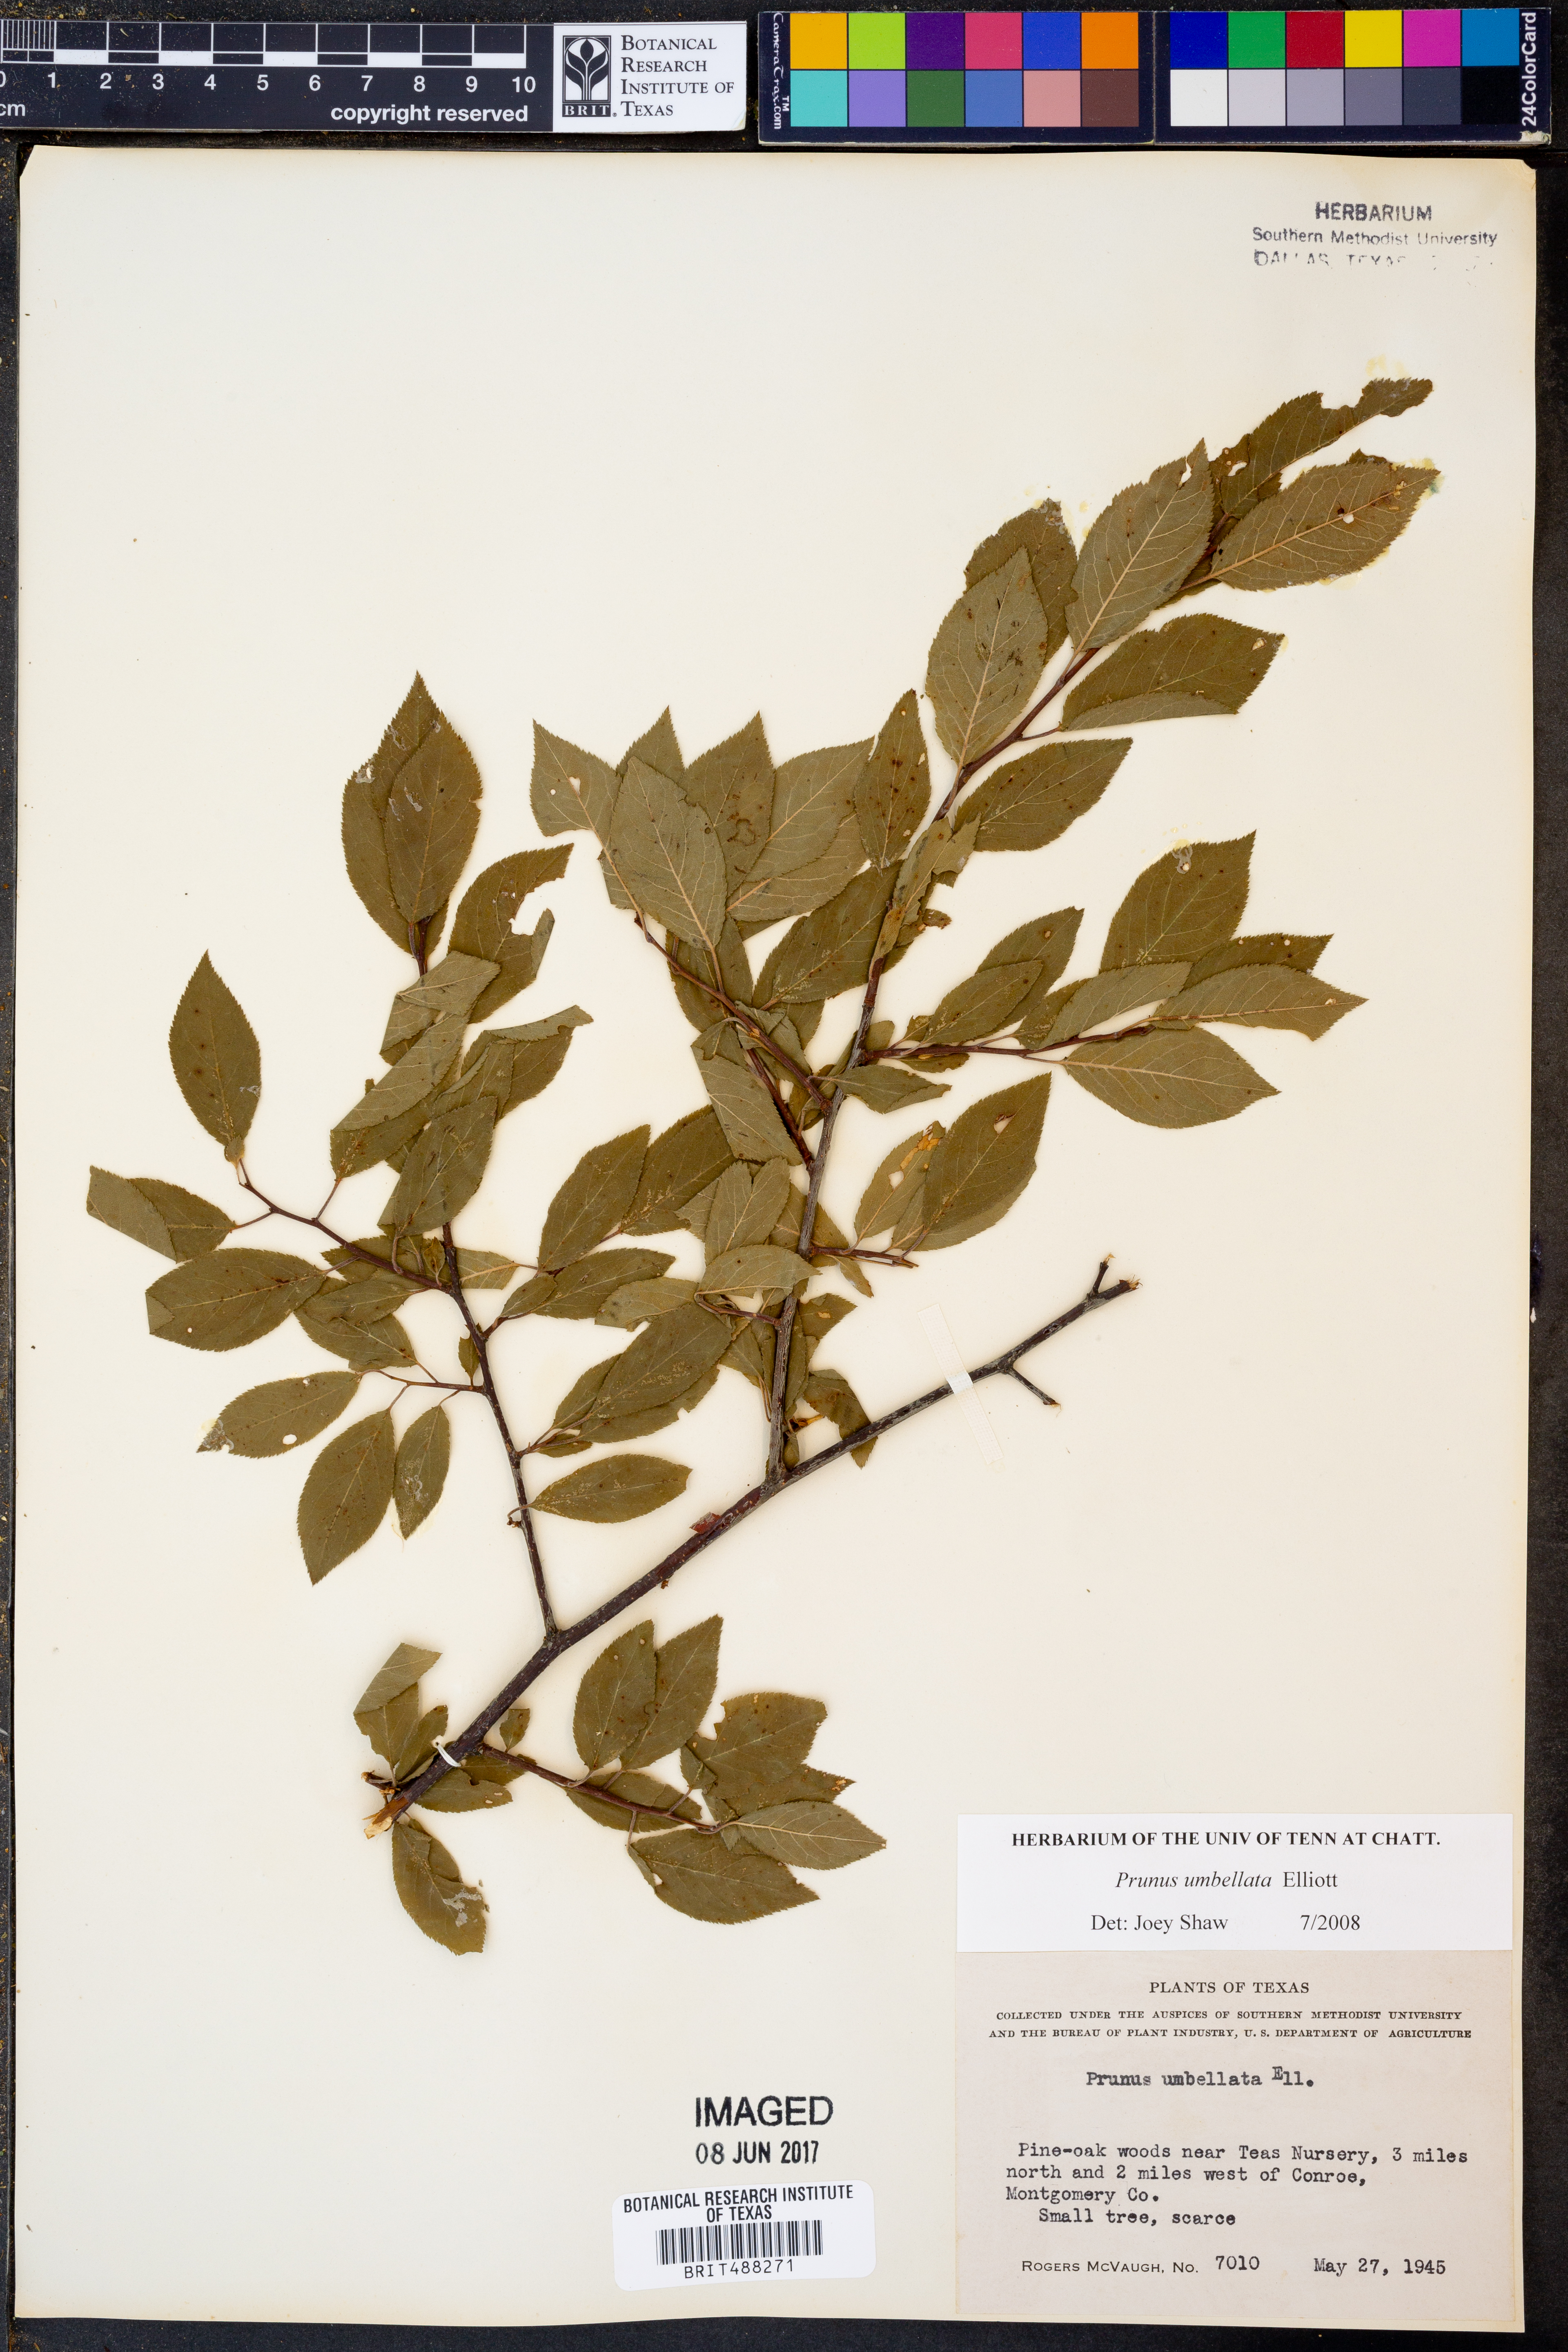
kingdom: Plantae
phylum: Tracheophyta
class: Magnoliopsida
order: Rosales
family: Rosaceae
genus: Prunus
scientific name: Prunus umbellata
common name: Allegheny plum
